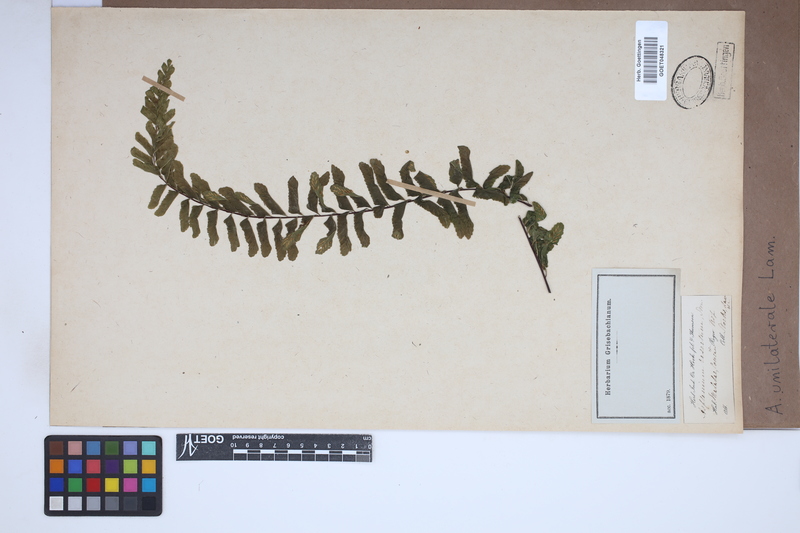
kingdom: Plantae
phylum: Tracheophyta
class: Polypodiopsida
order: Polypodiales
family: Aspleniaceae
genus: Hymenasplenium
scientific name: Hymenasplenium unilaterale
